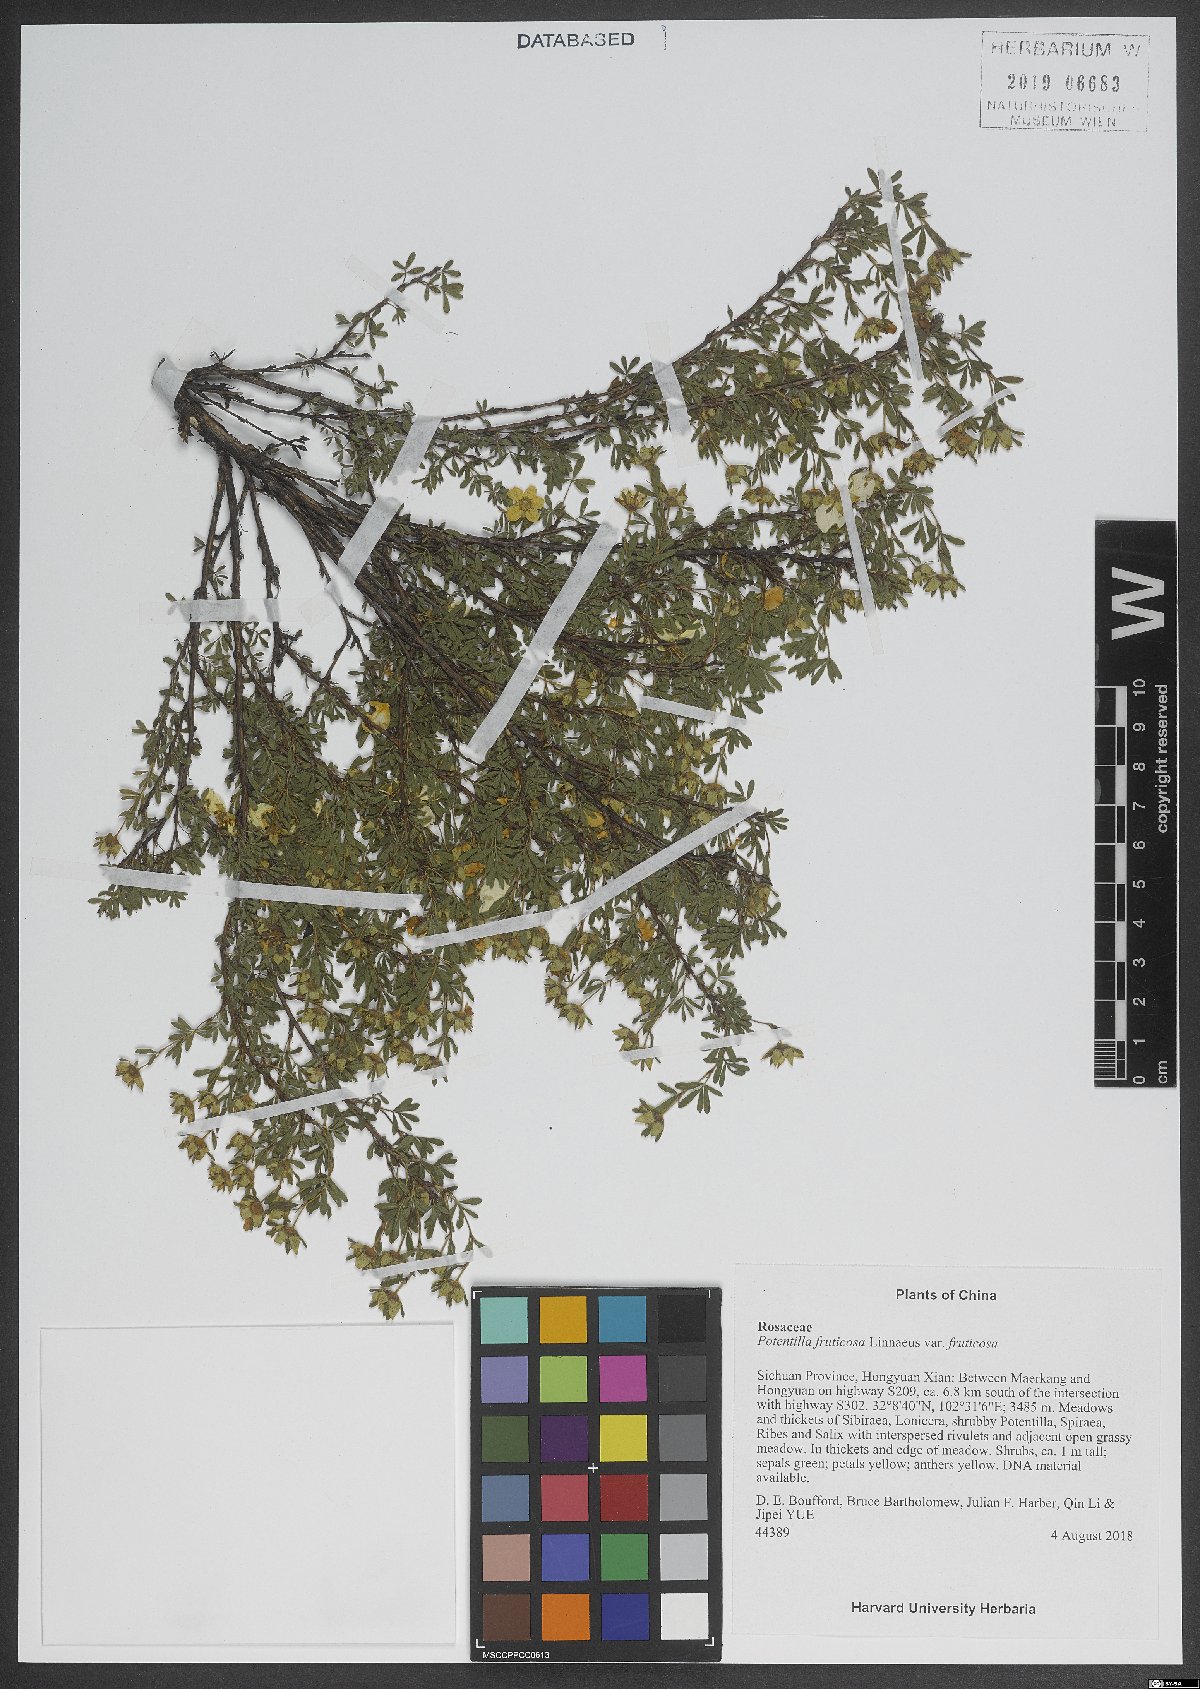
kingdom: Plantae
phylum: Tracheophyta
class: Magnoliopsida
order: Rosales
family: Rosaceae
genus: Dasiphora
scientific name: Dasiphora fruticosa
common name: Shrubby cinquefoil
